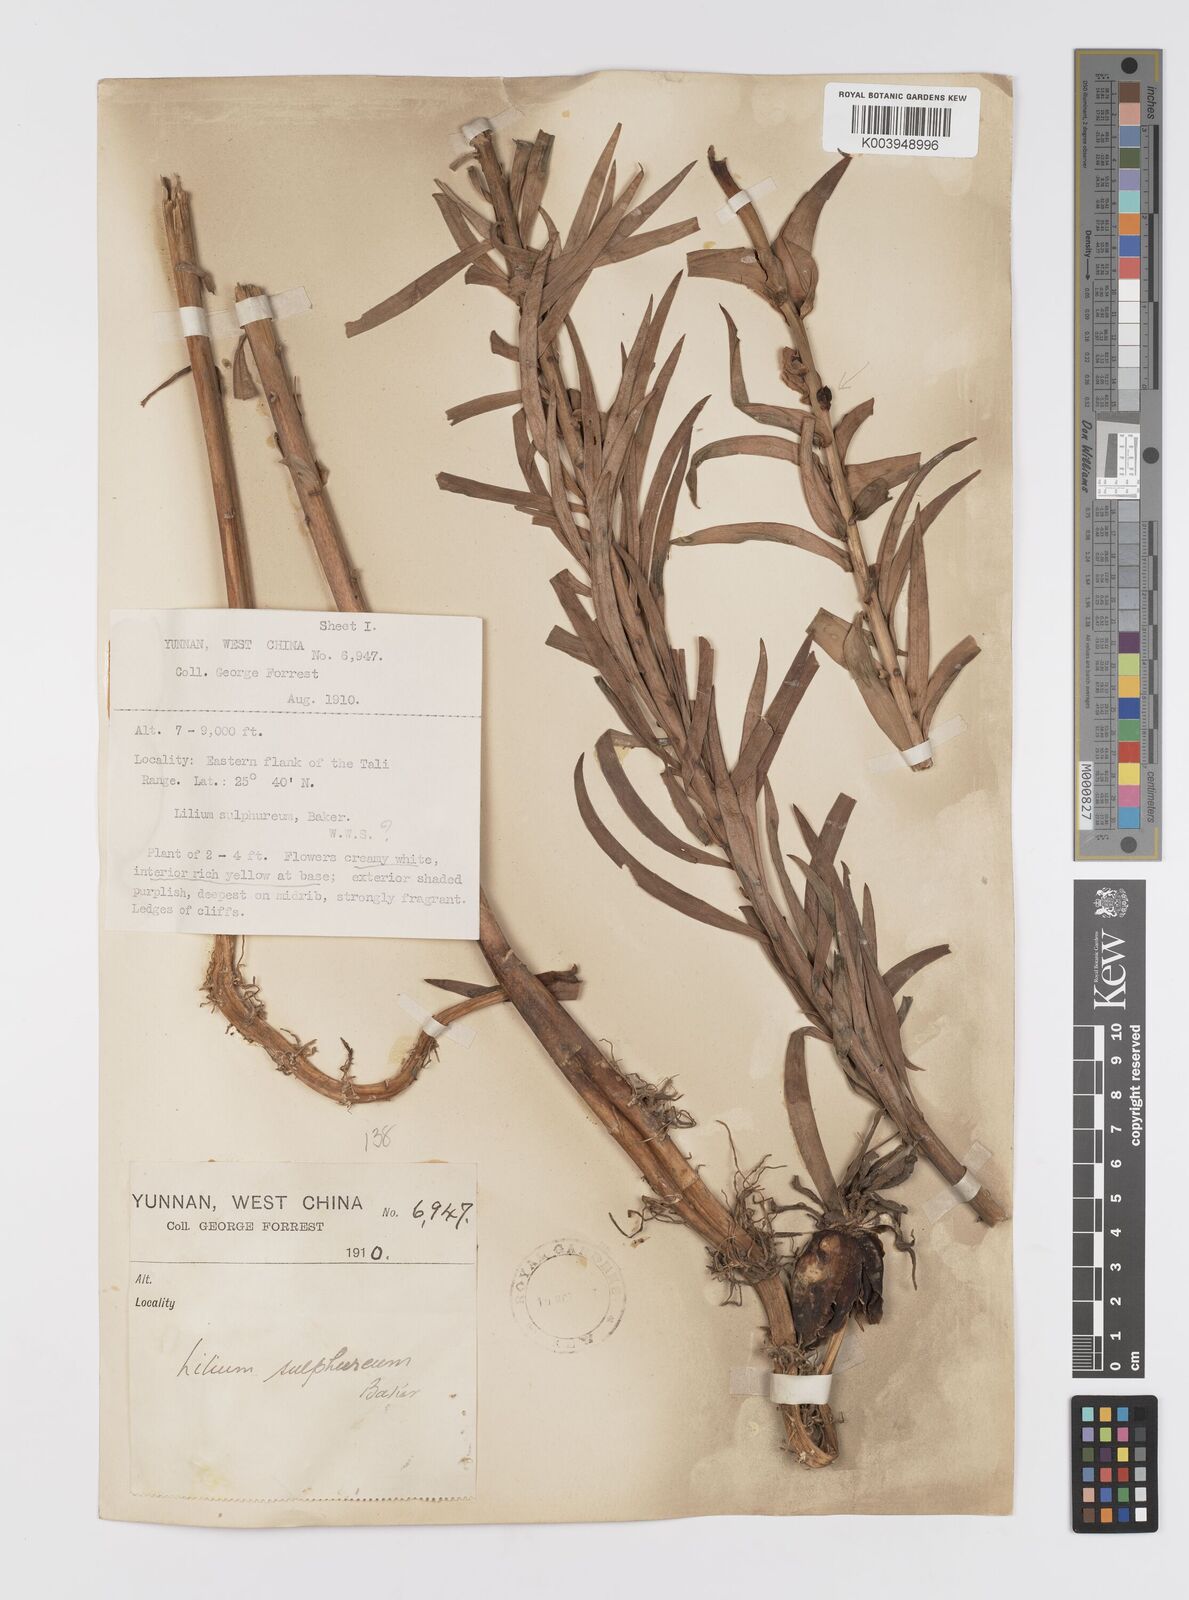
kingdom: Plantae
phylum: Tracheophyta
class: Liliopsida
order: Liliales
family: Liliaceae
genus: Lilium
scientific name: Lilium sulphureum
